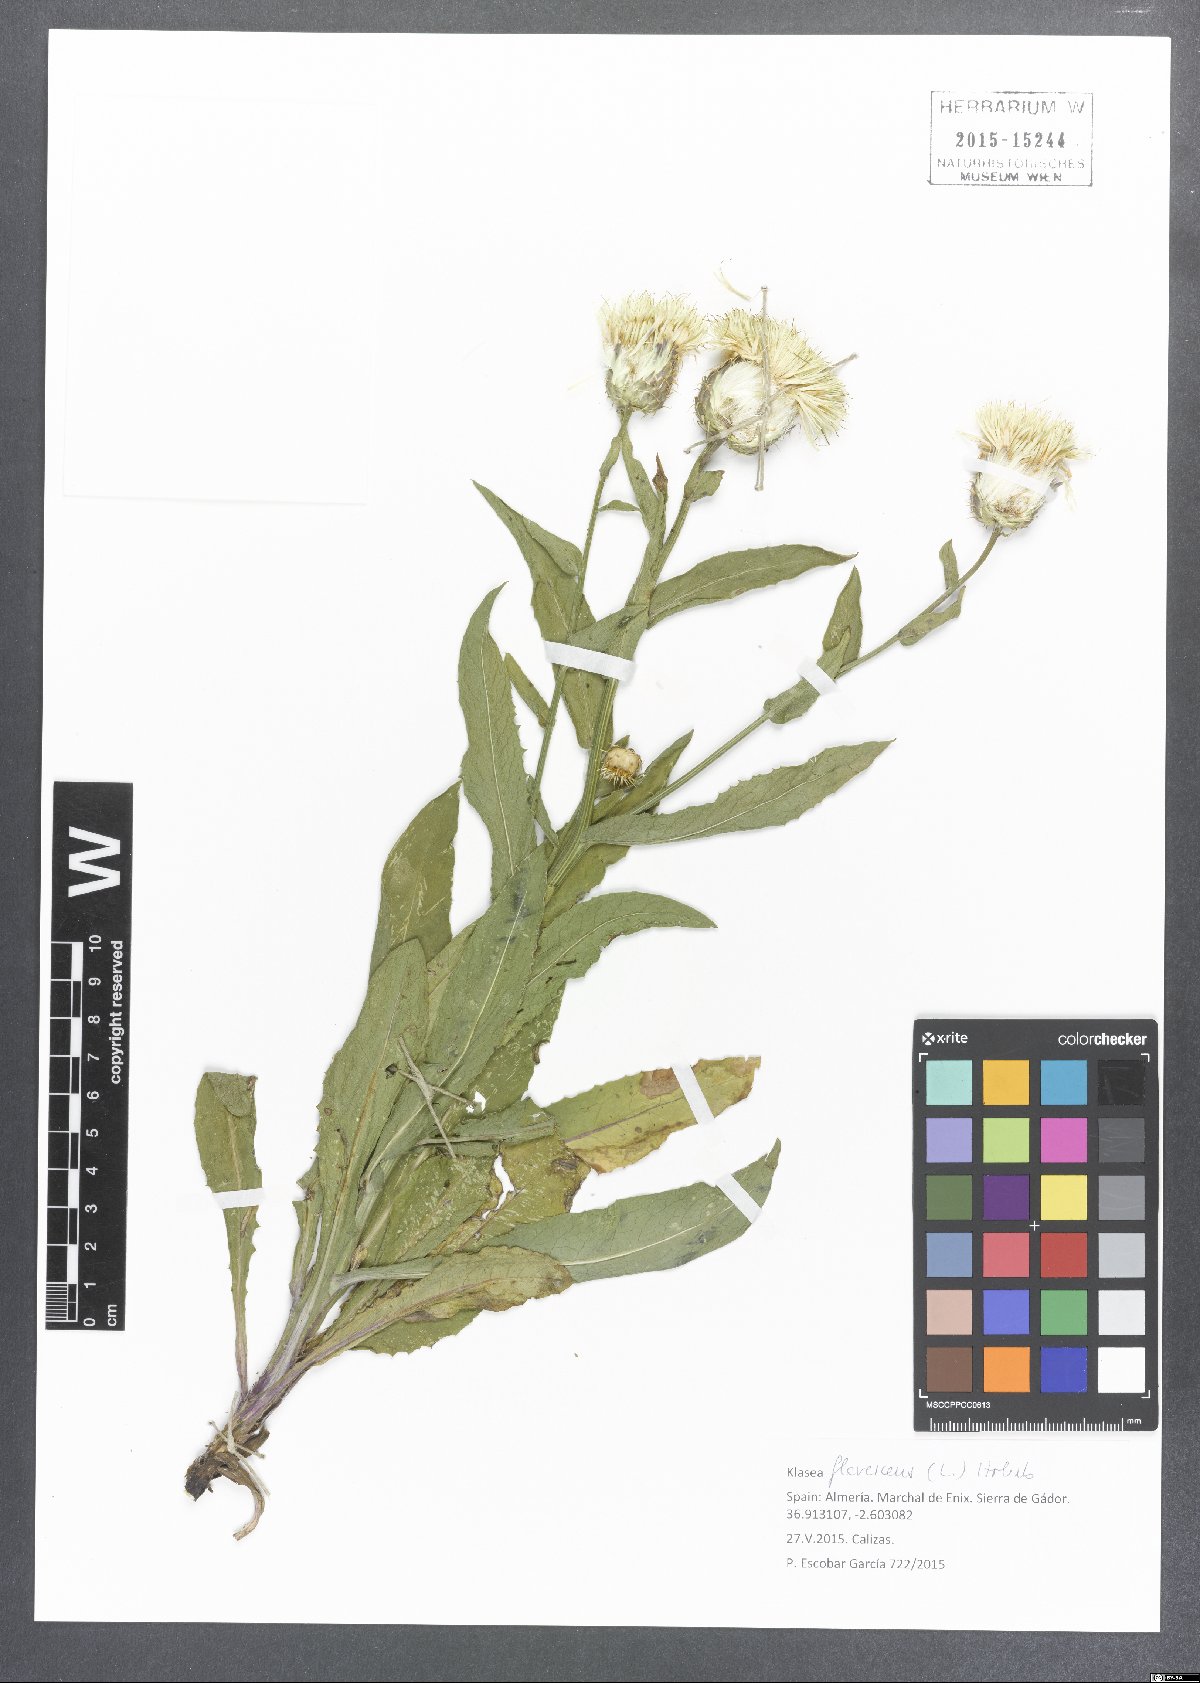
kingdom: Plantae
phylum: Tracheophyta
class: Magnoliopsida
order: Asterales
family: Asteraceae
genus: Klasea
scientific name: Klasea flavescens
